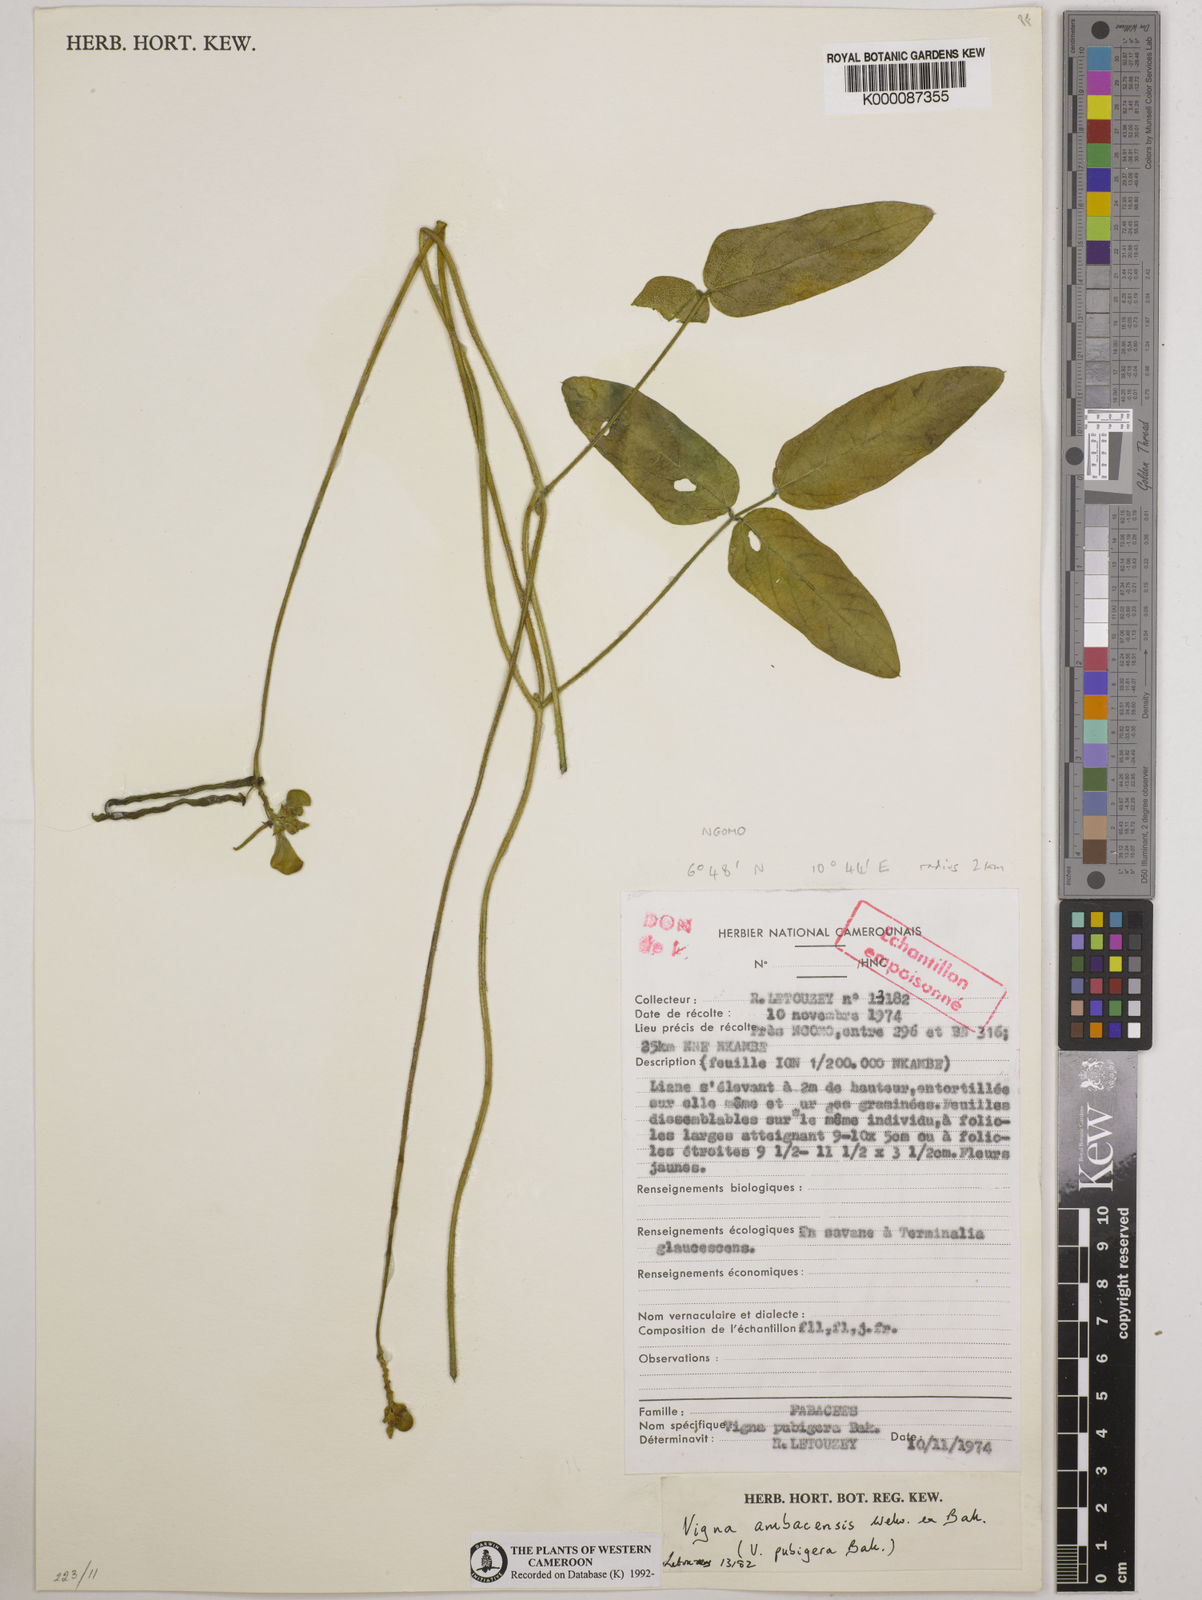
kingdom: Plantae
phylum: Tracheophyta
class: Magnoliopsida
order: Fabales
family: Fabaceae
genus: Vigna
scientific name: Vigna ambacensis
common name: Tsarkiyan zomo
